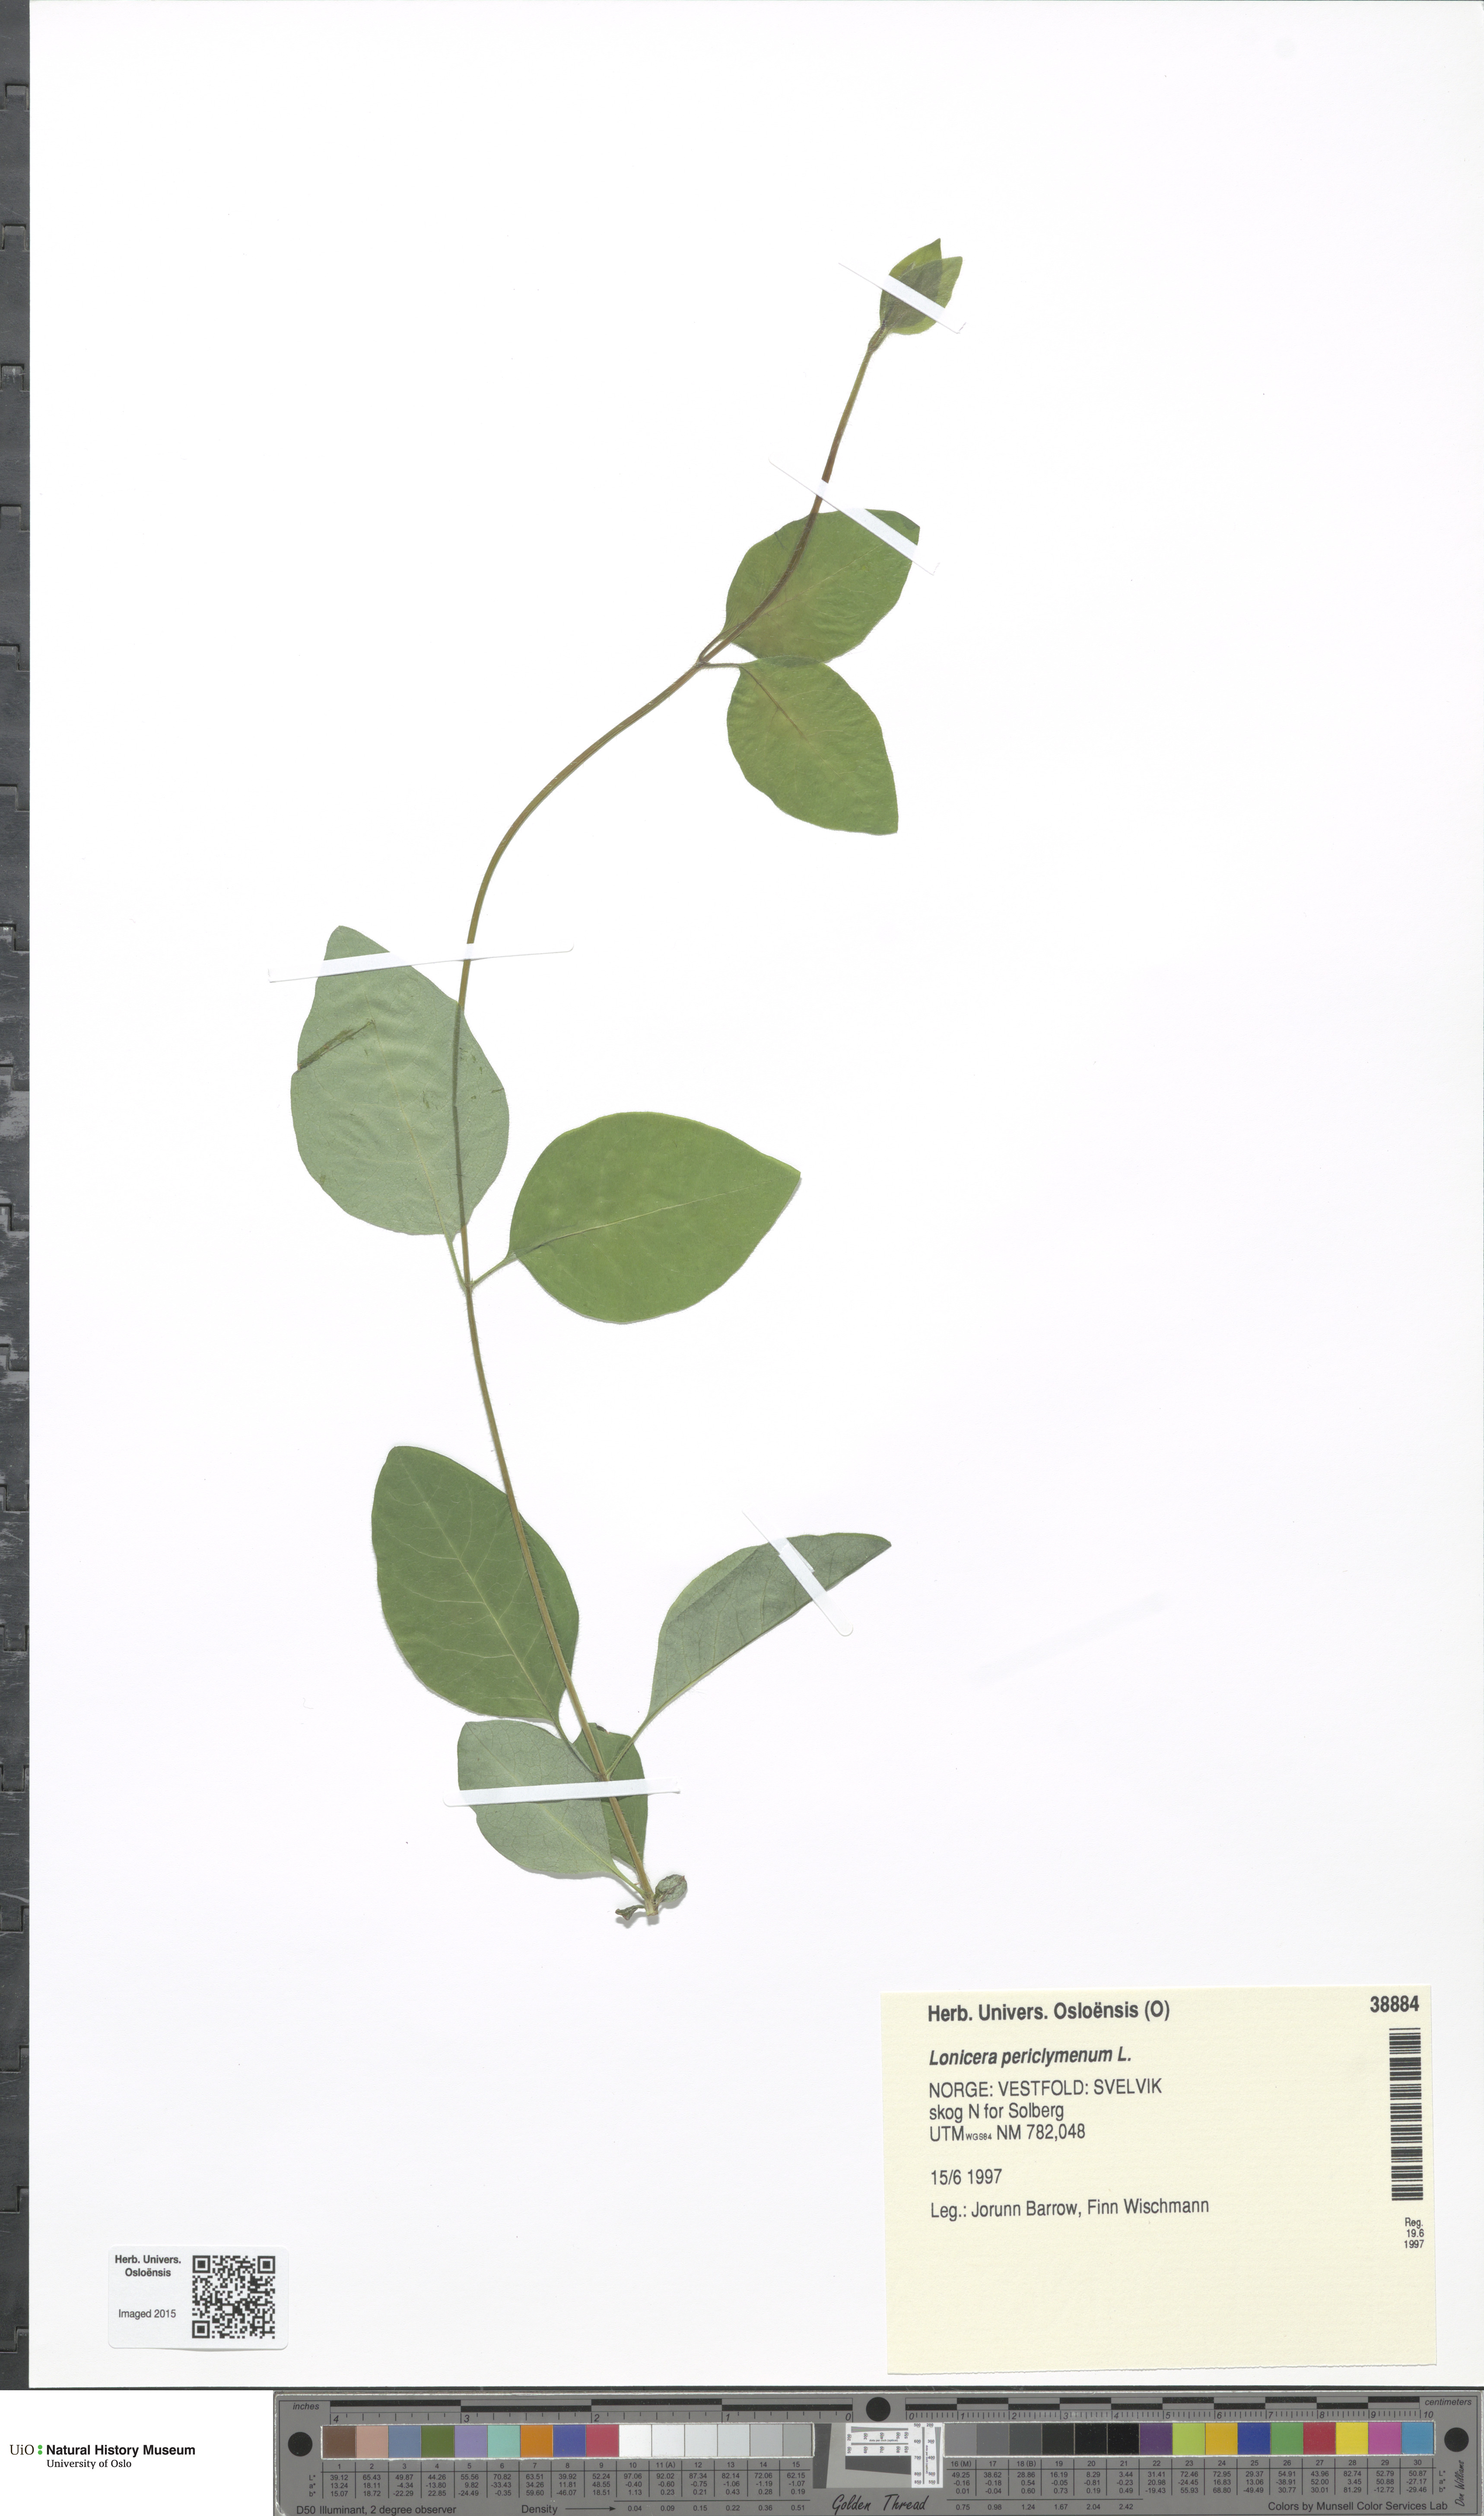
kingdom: Plantae
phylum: Tracheophyta
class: Magnoliopsida
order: Dipsacales
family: Caprifoliaceae
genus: Lonicera
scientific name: Lonicera periclymenum
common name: European honeysuckle
